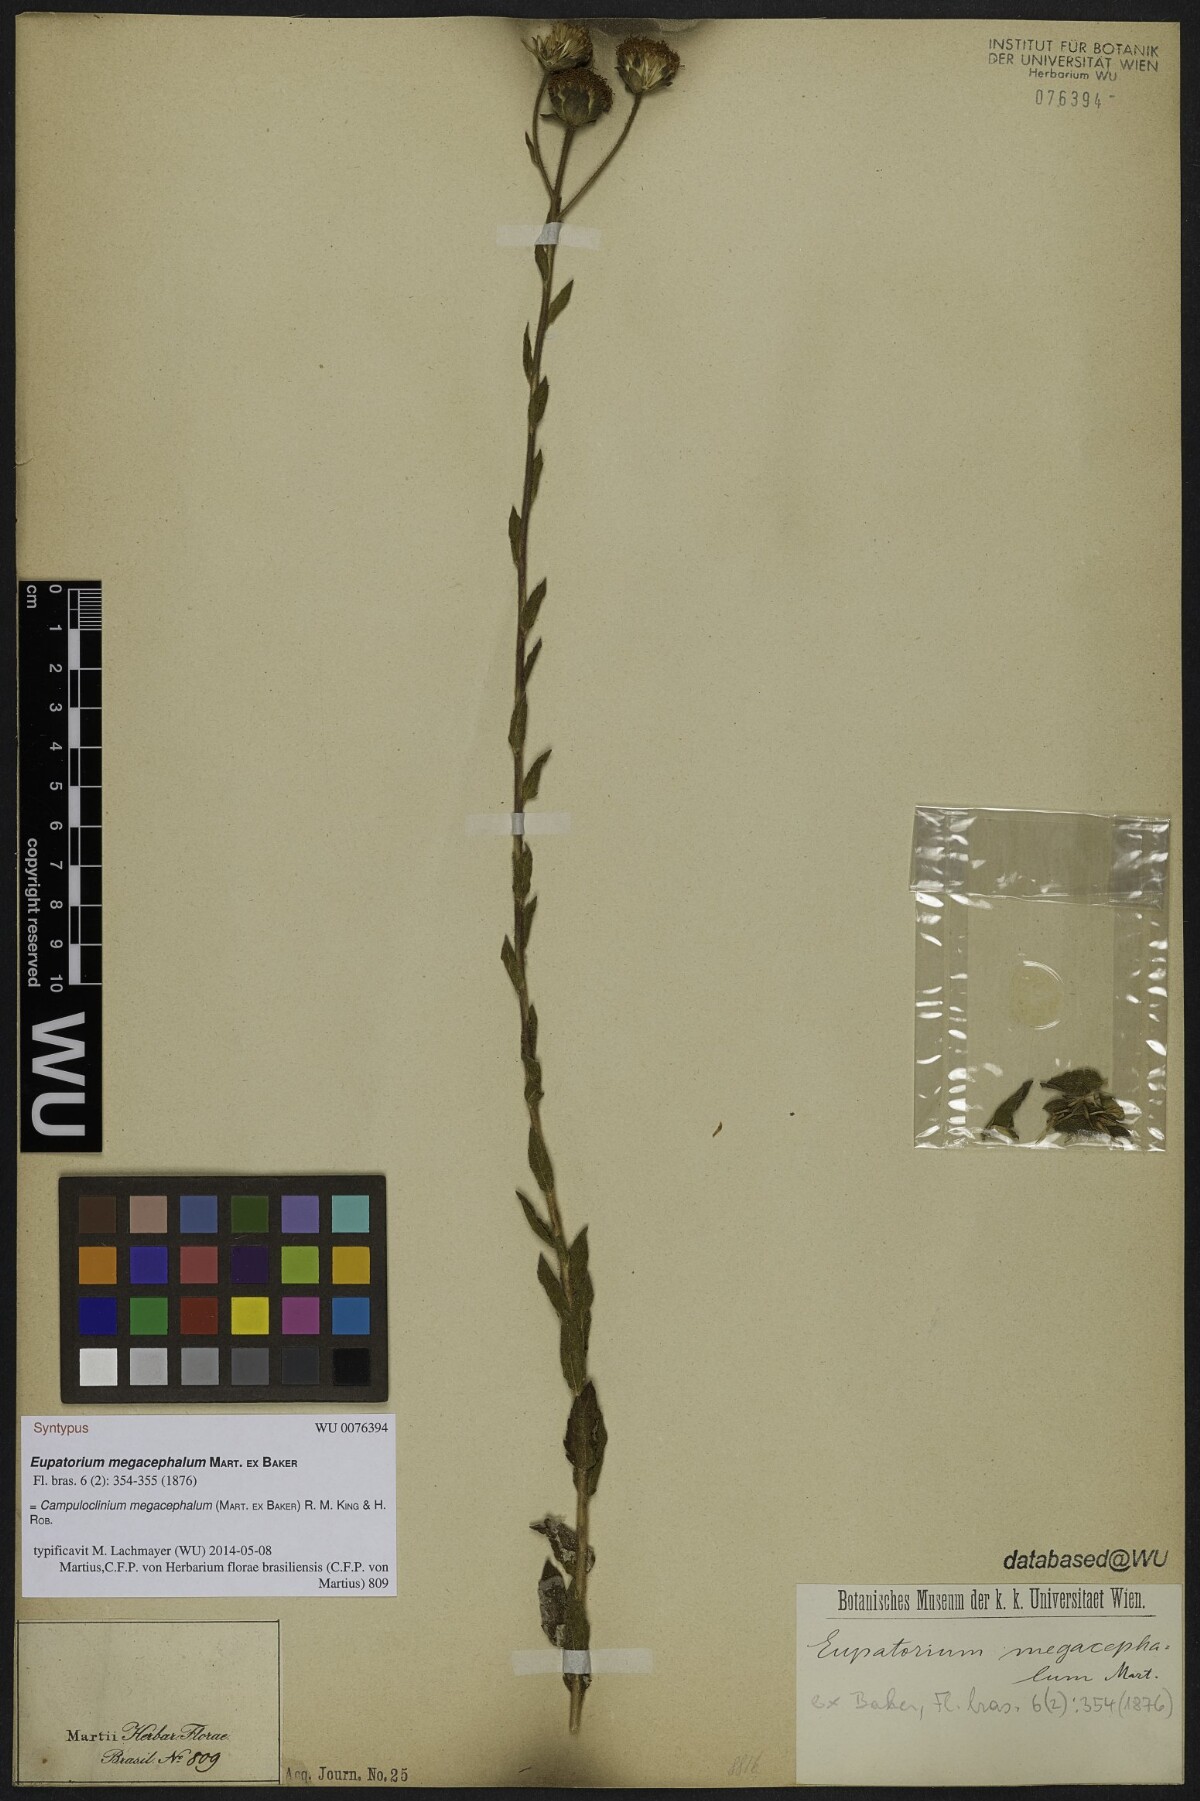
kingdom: Plantae
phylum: Tracheophyta
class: Magnoliopsida
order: Asterales
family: Asteraceae
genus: Campuloclinium
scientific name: Campuloclinium megacephalum
